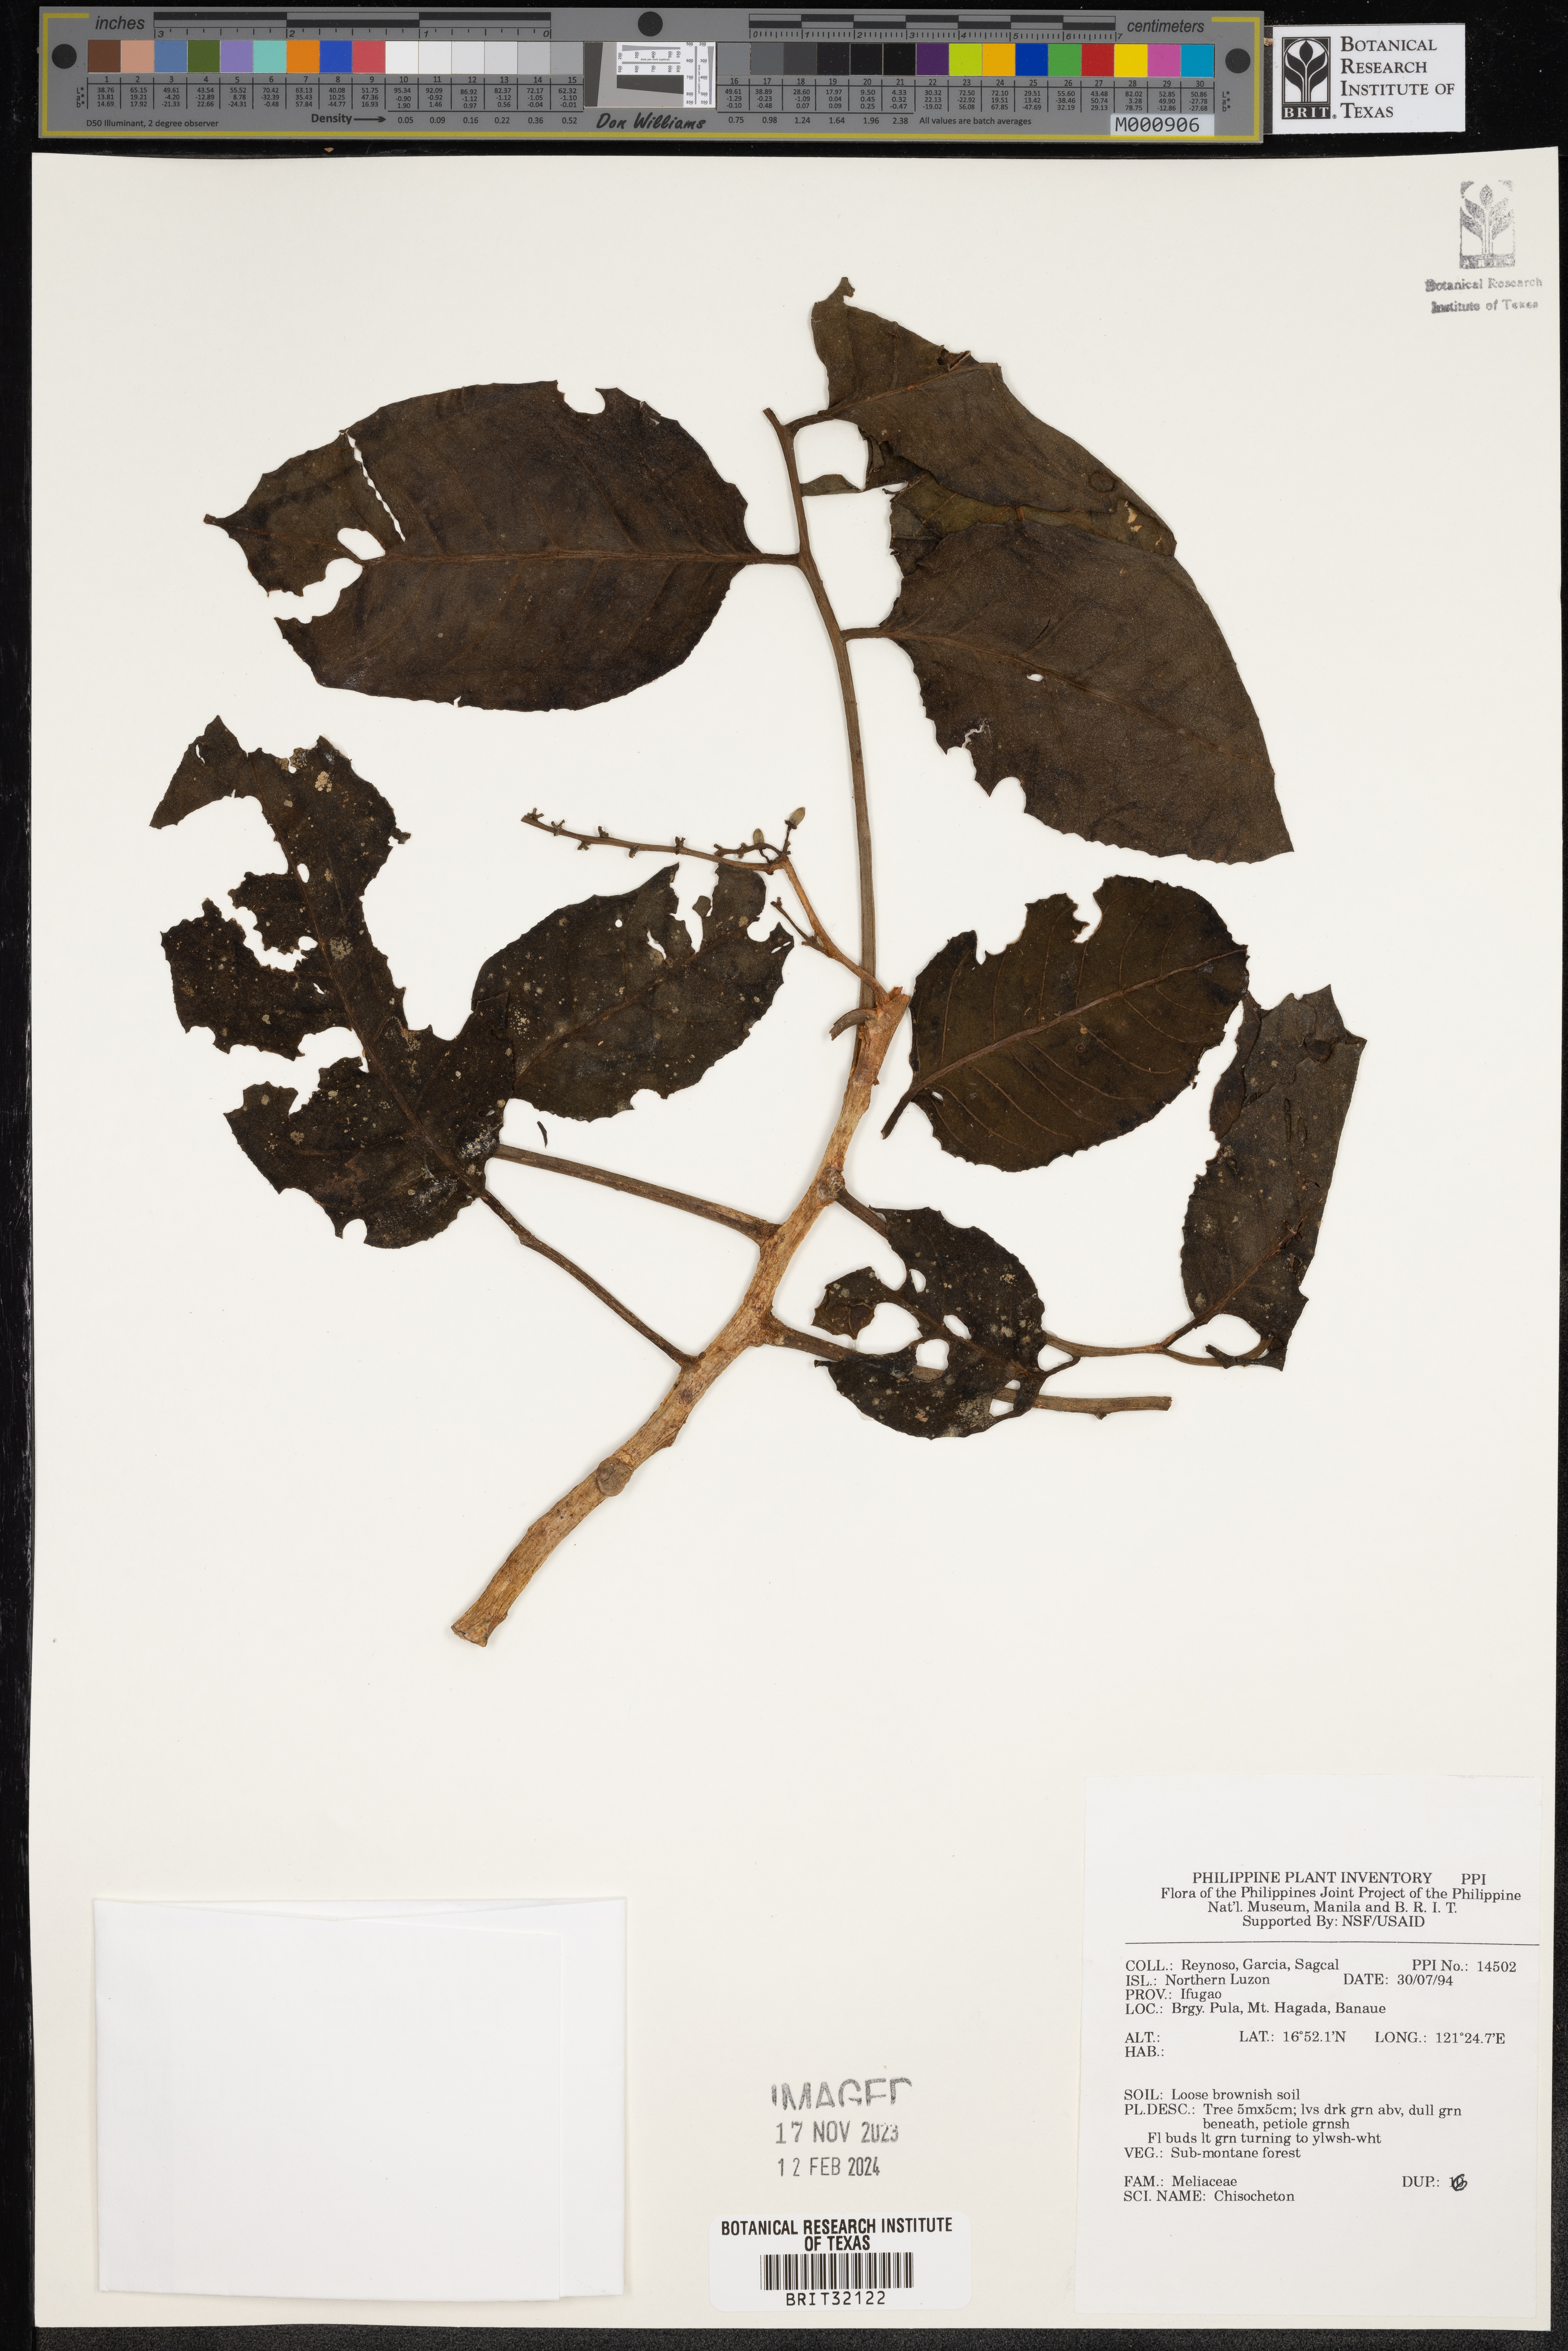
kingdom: Plantae
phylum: Tracheophyta
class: Magnoliopsida
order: Sapindales
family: Meliaceae
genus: Chisocheton
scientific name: Chisocheton
